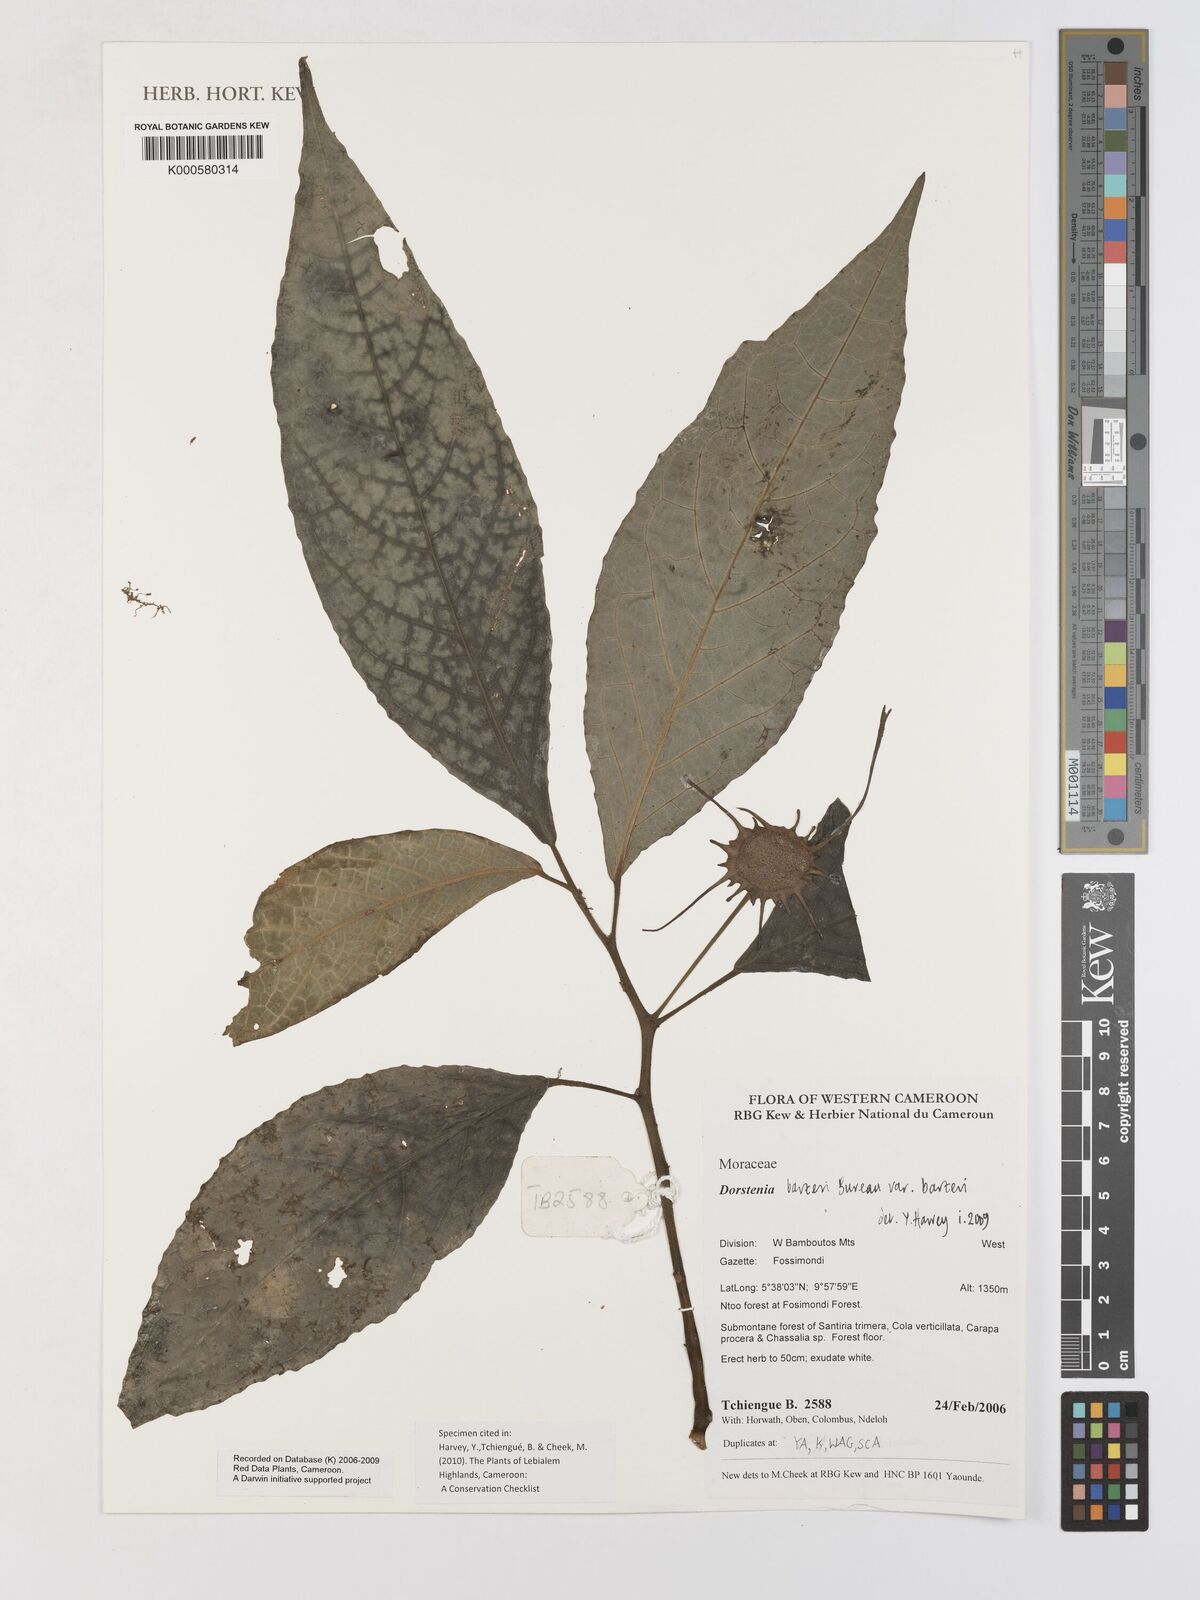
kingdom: Plantae
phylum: Tracheophyta
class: Magnoliopsida
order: Rosales
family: Moraceae
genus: Dorstenia
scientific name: Dorstenia barteri
